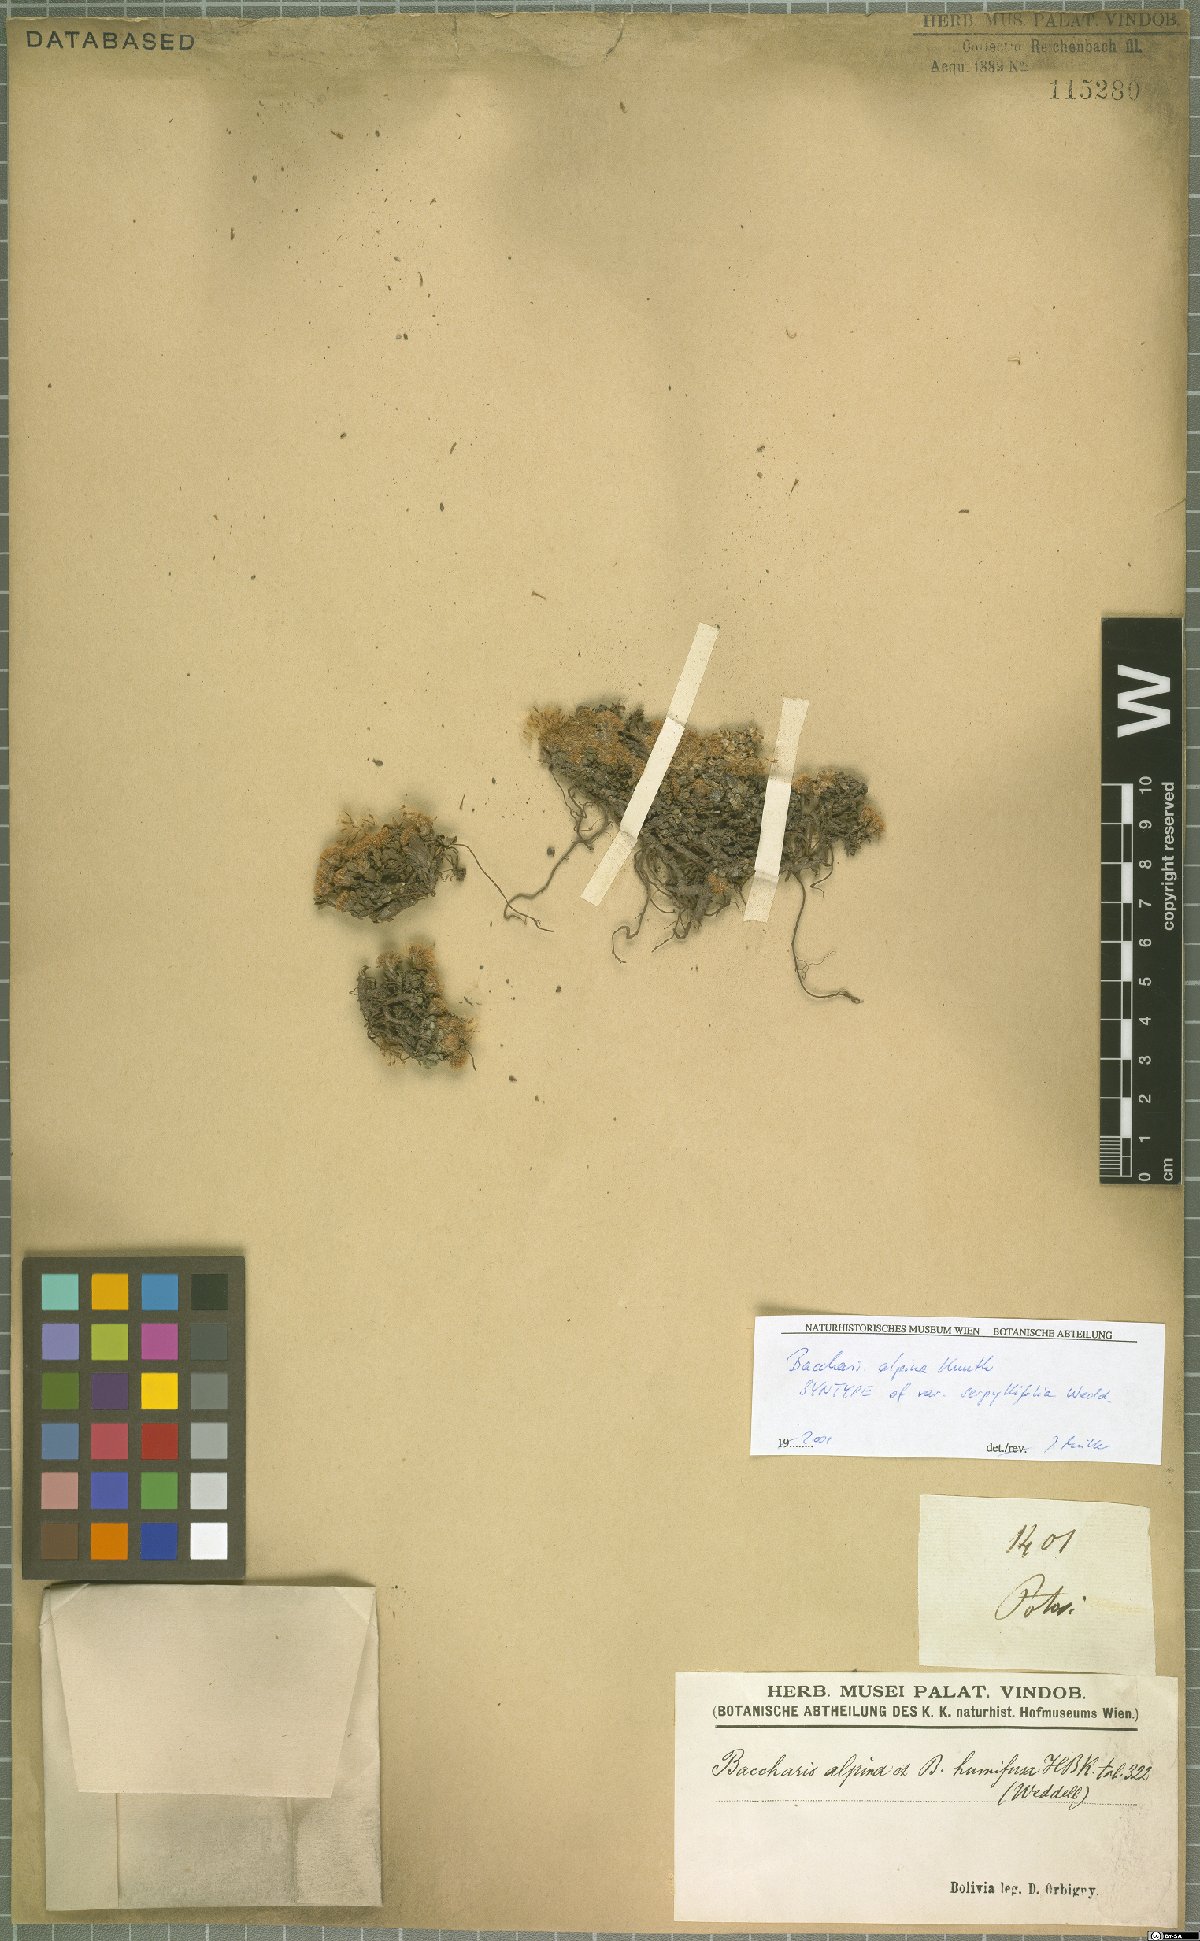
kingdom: Plantae
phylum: Tracheophyta
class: Magnoliopsida
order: Asterales
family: Asteraceae
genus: Baccharis
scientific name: Baccharis alpina
